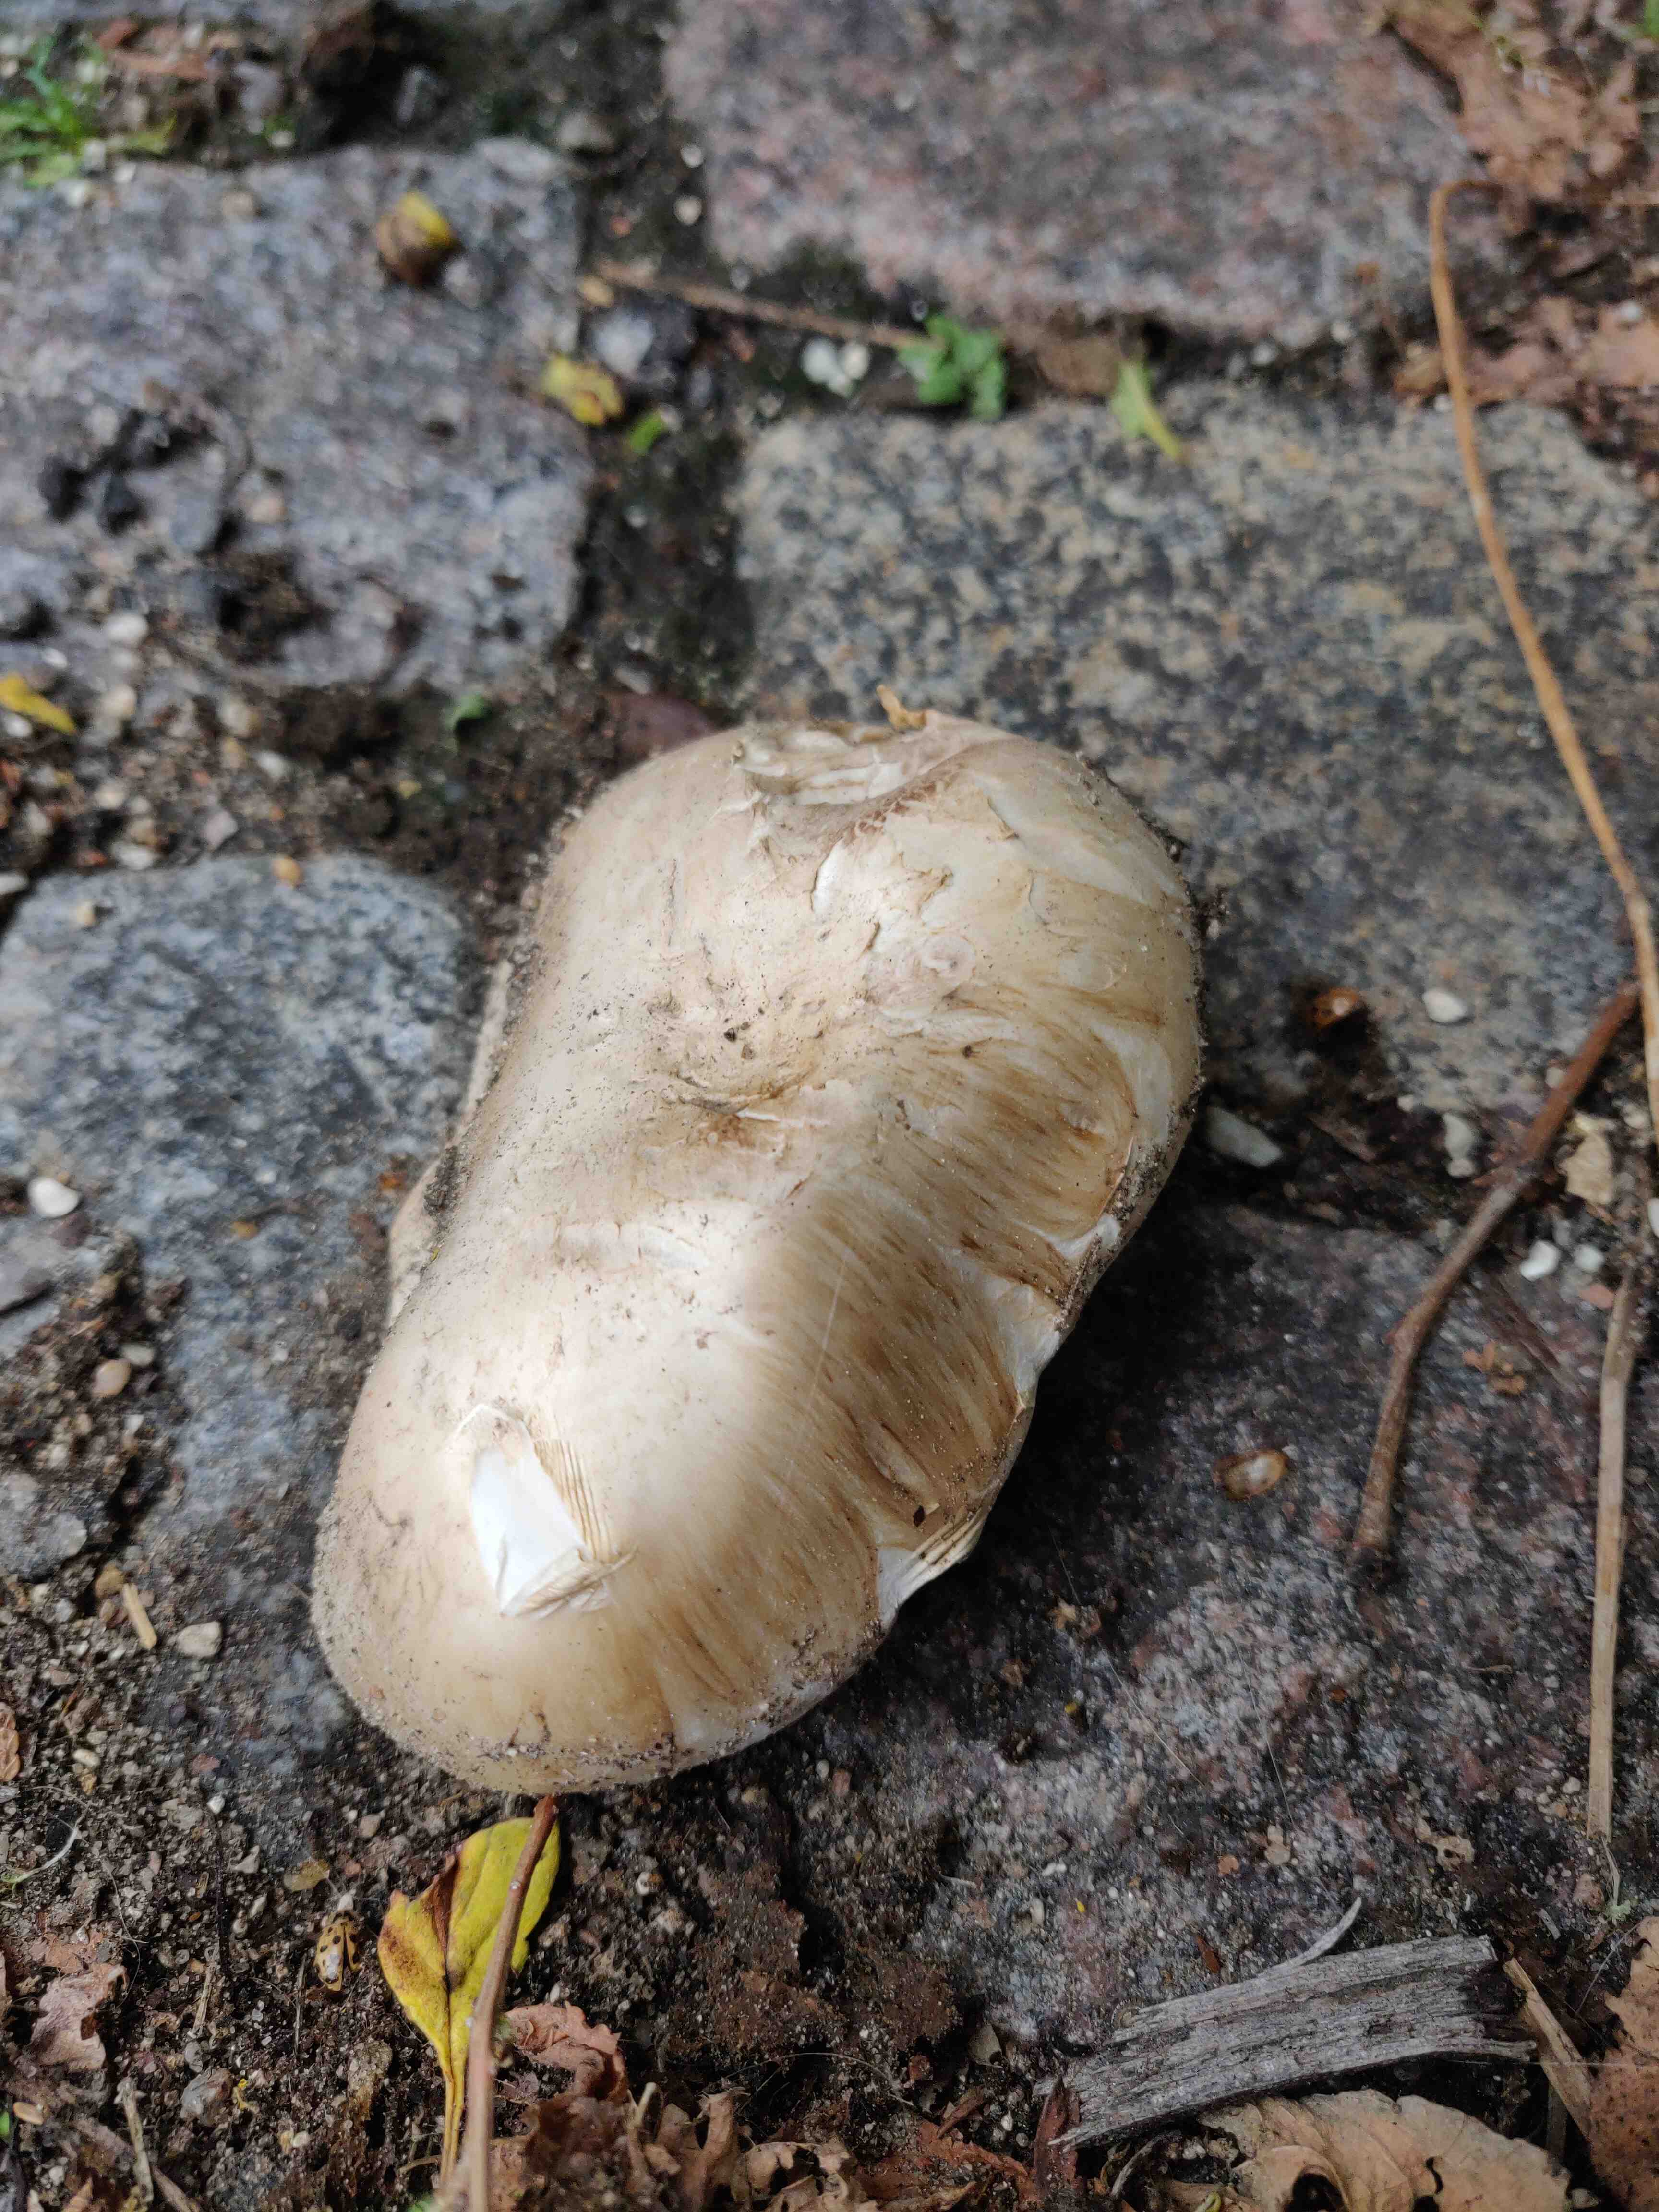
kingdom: Fungi
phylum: Basidiomycota
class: Agaricomycetes
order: Agaricales
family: Agaricaceae
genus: Agaricus
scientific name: Agaricus
